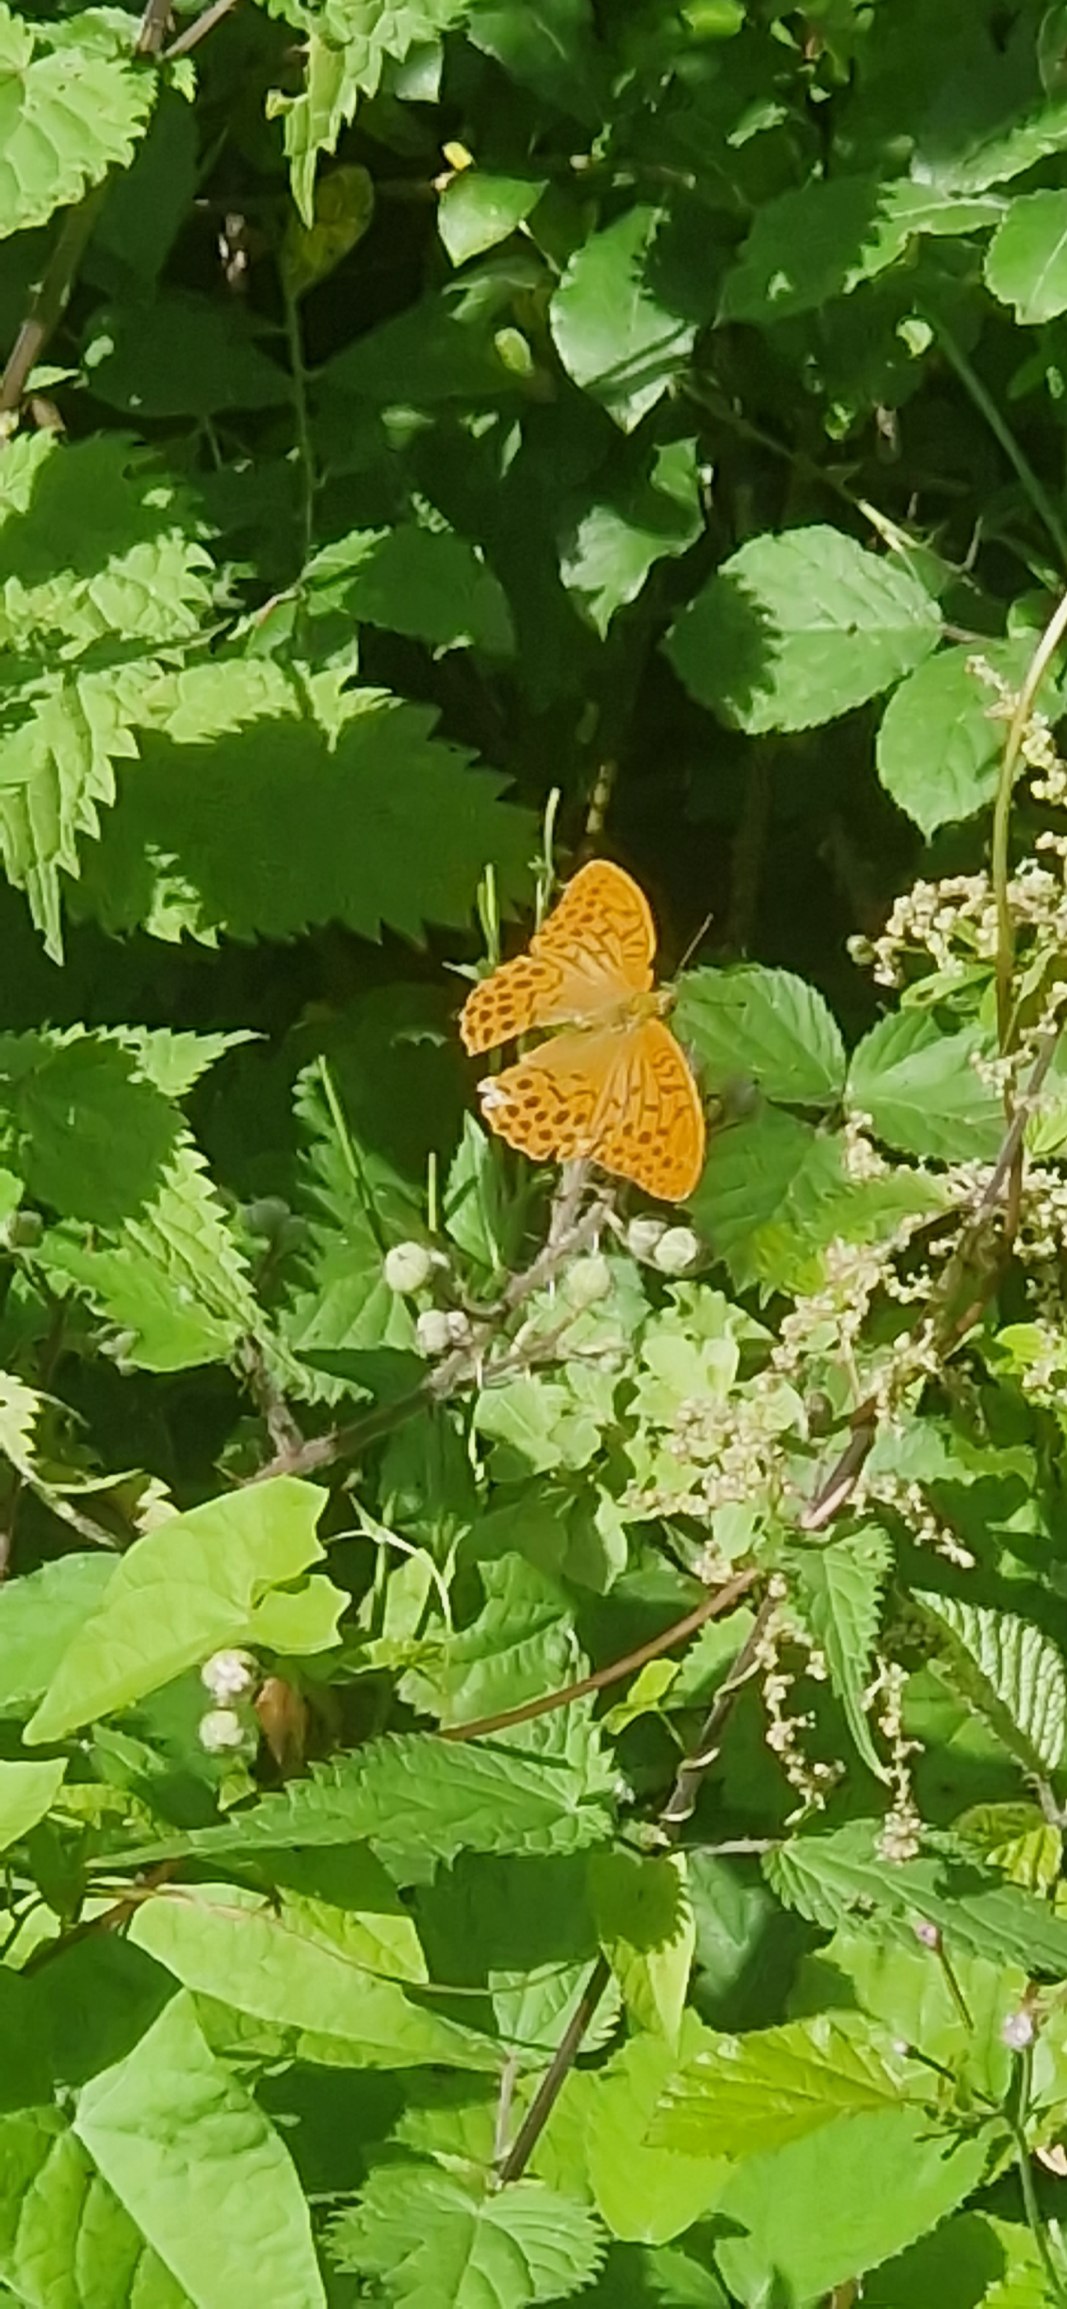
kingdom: Animalia
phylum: Arthropoda
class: Insecta
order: Lepidoptera
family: Nymphalidae
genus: Argynnis
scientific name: Argynnis paphia
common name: Kejserkåbe
